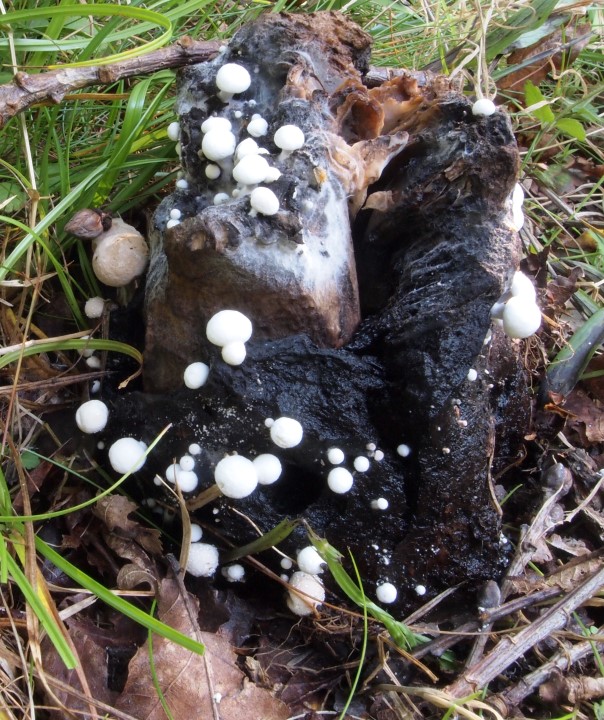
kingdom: Fungi
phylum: Basidiomycota
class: Agaricomycetes
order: Agaricales
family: Tricholomataceae
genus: Collybia
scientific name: Collybia cirrhata
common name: silke-lighat
